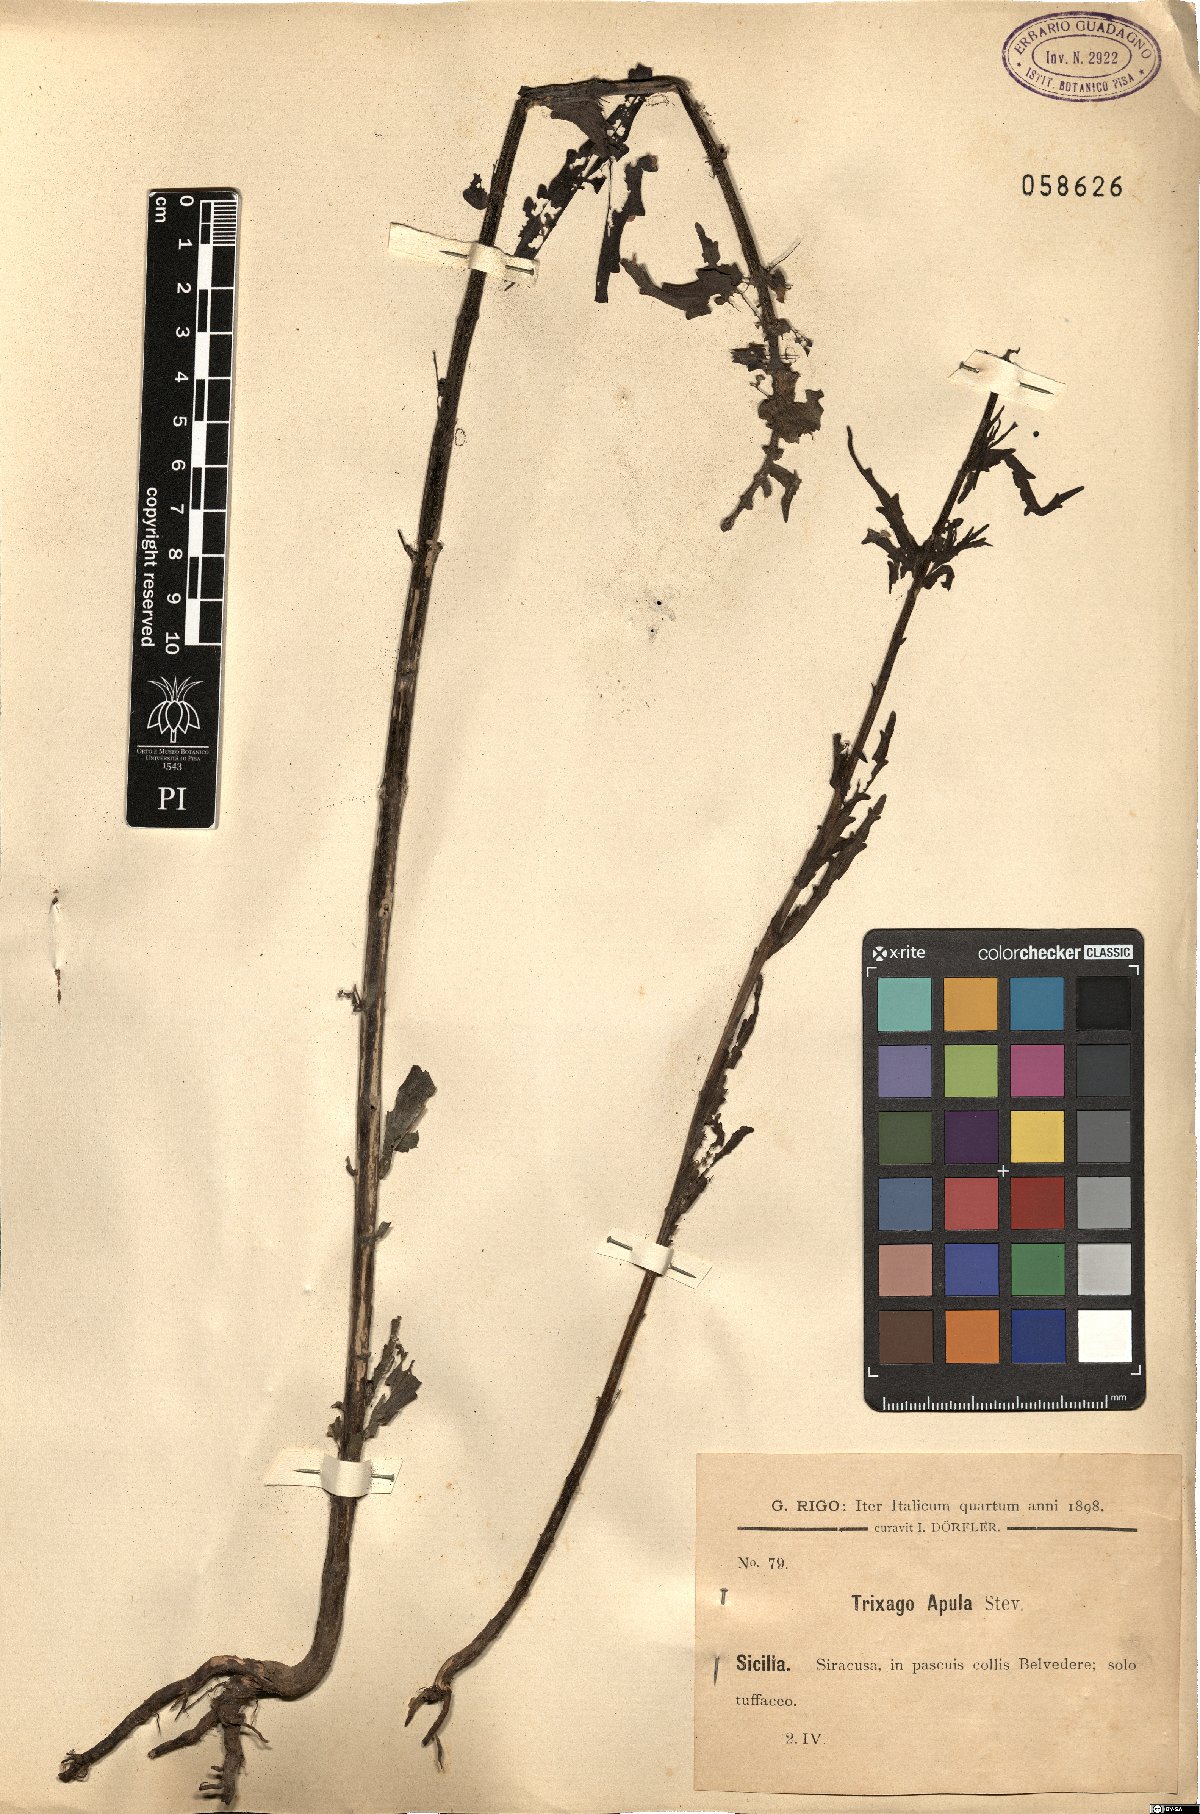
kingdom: Plantae
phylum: Tracheophyta
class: Magnoliopsida
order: Lamiales
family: Orobanchaceae
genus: Bellardia
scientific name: Bellardia trixago
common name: Mediterranean lineseed
